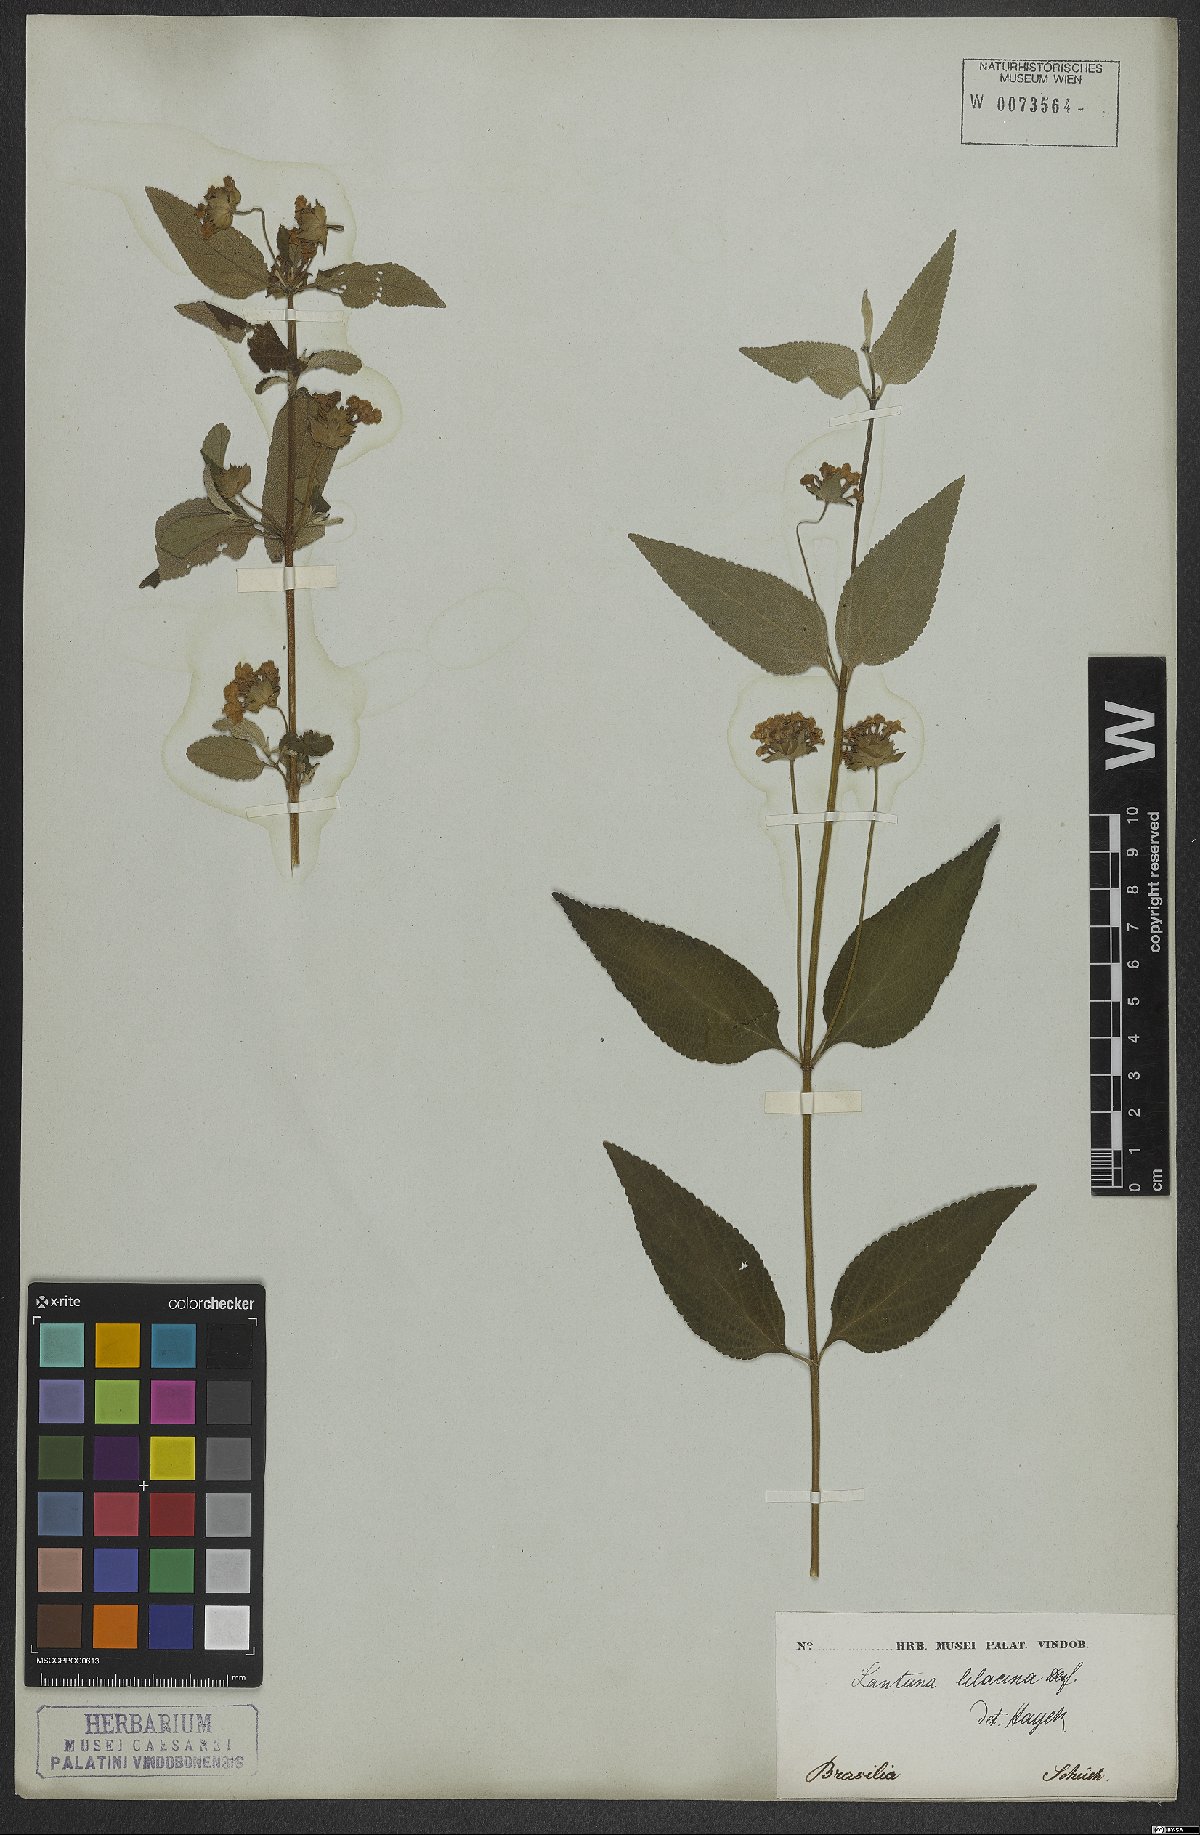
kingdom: Plantae
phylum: Tracheophyta
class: Magnoliopsida
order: Lamiales
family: Verbenaceae
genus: Lantana
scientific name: Lantana fucata
